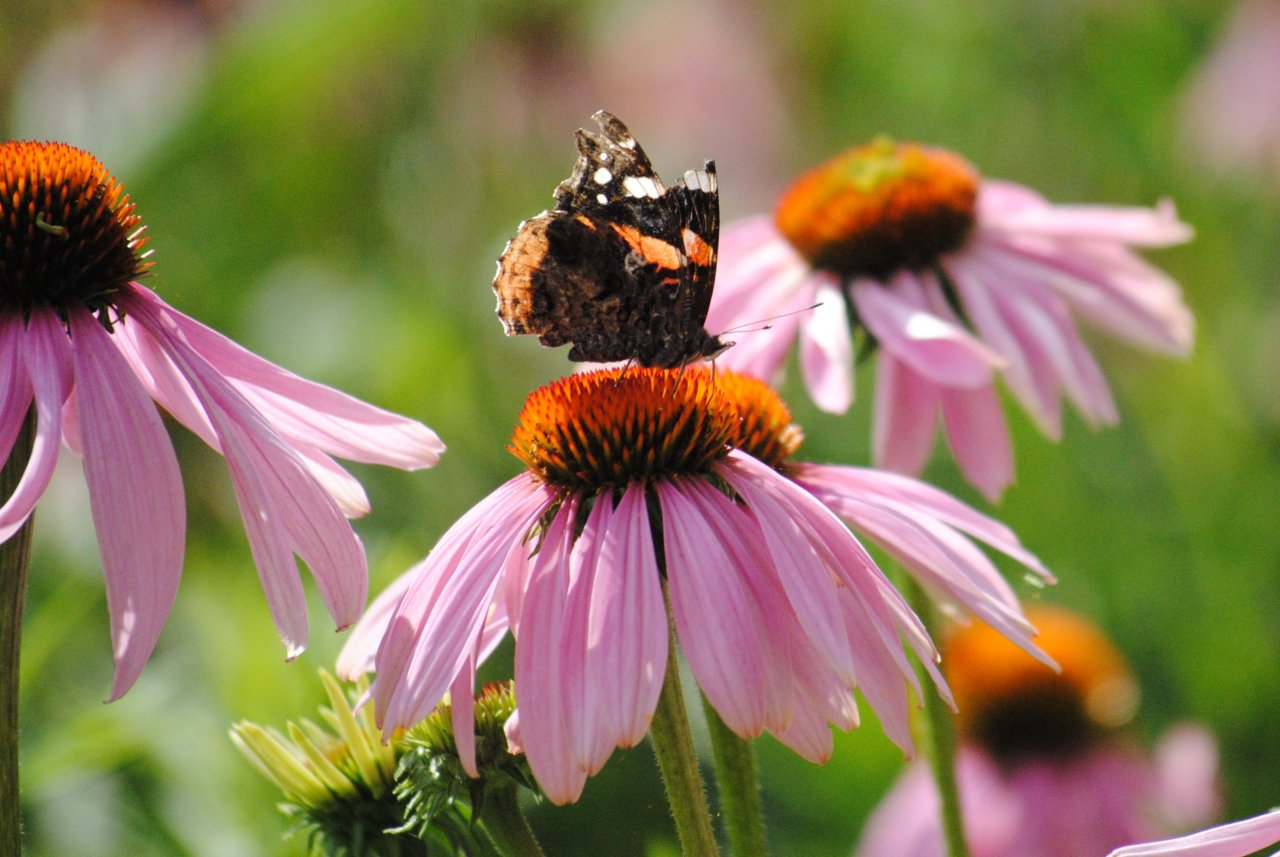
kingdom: Animalia
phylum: Arthropoda
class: Insecta
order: Lepidoptera
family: Nymphalidae
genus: Vanessa
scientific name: Vanessa atalanta
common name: Red Admiral
